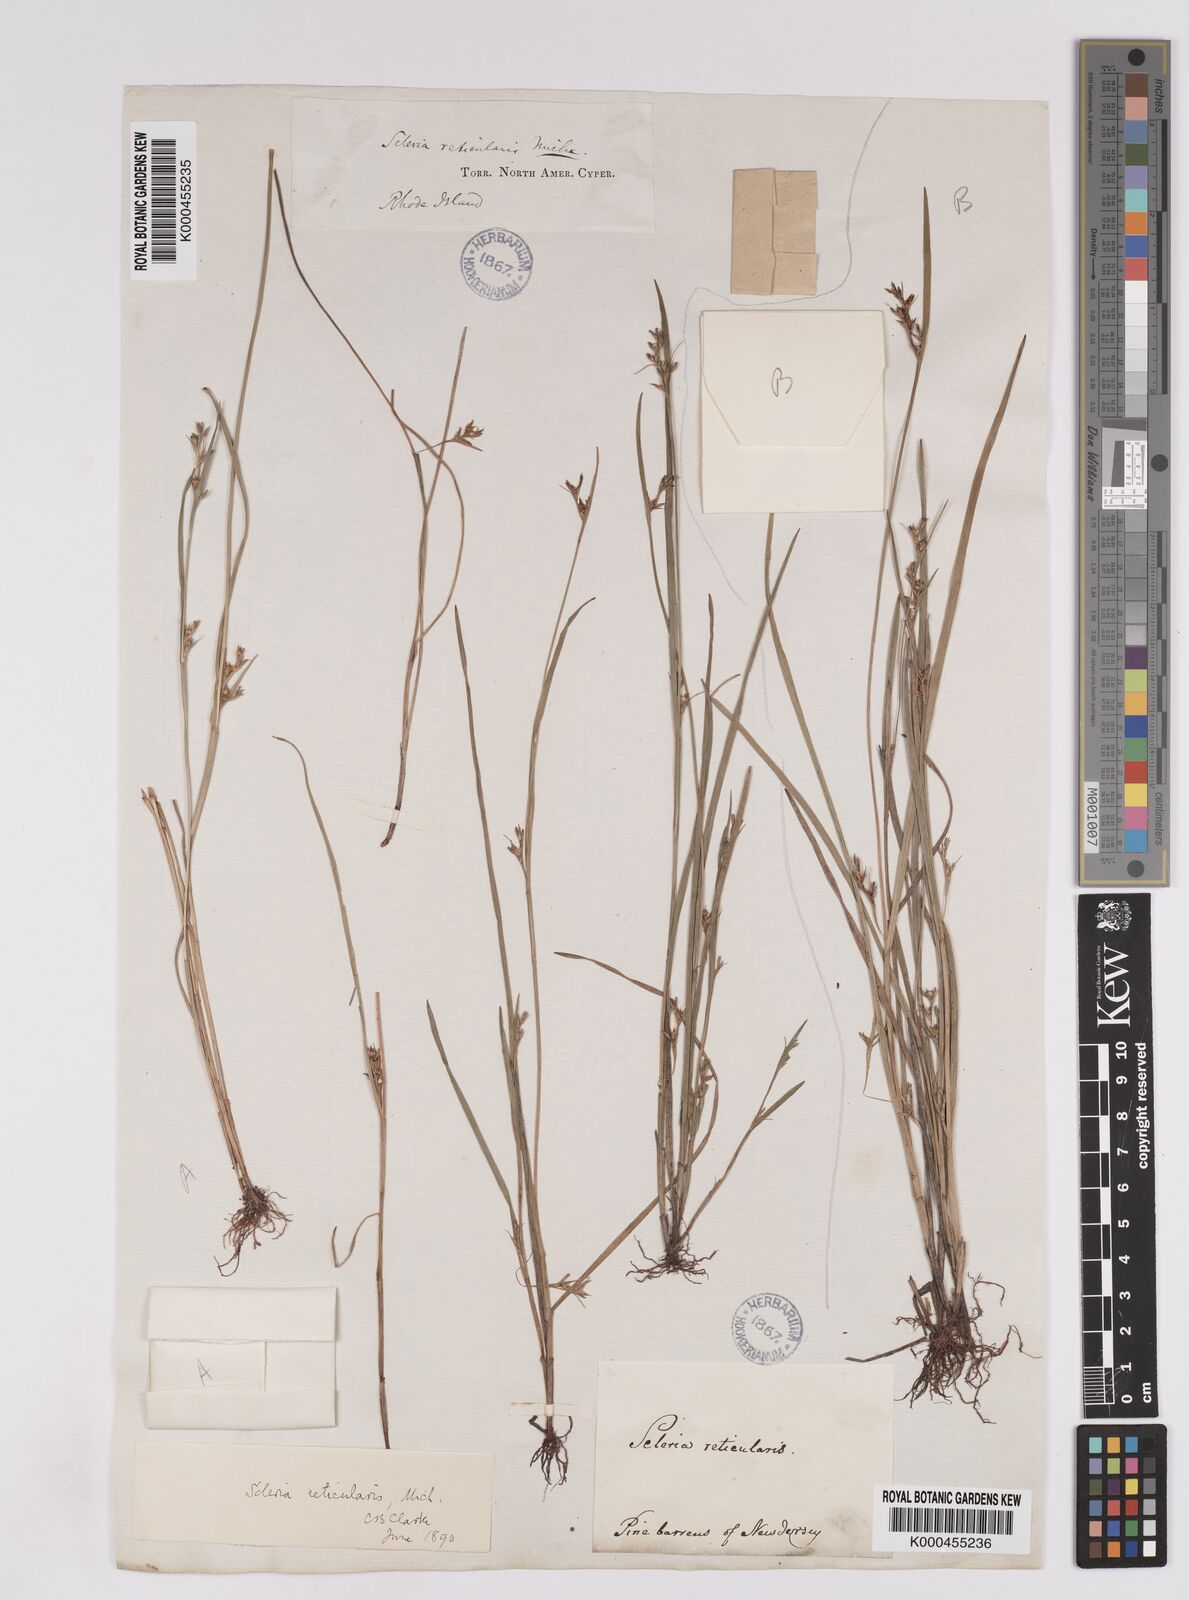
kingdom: Plantae
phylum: Tracheophyta
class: Liliopsida
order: Poales
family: Cyperaceae
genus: Scleria
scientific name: Scleria
